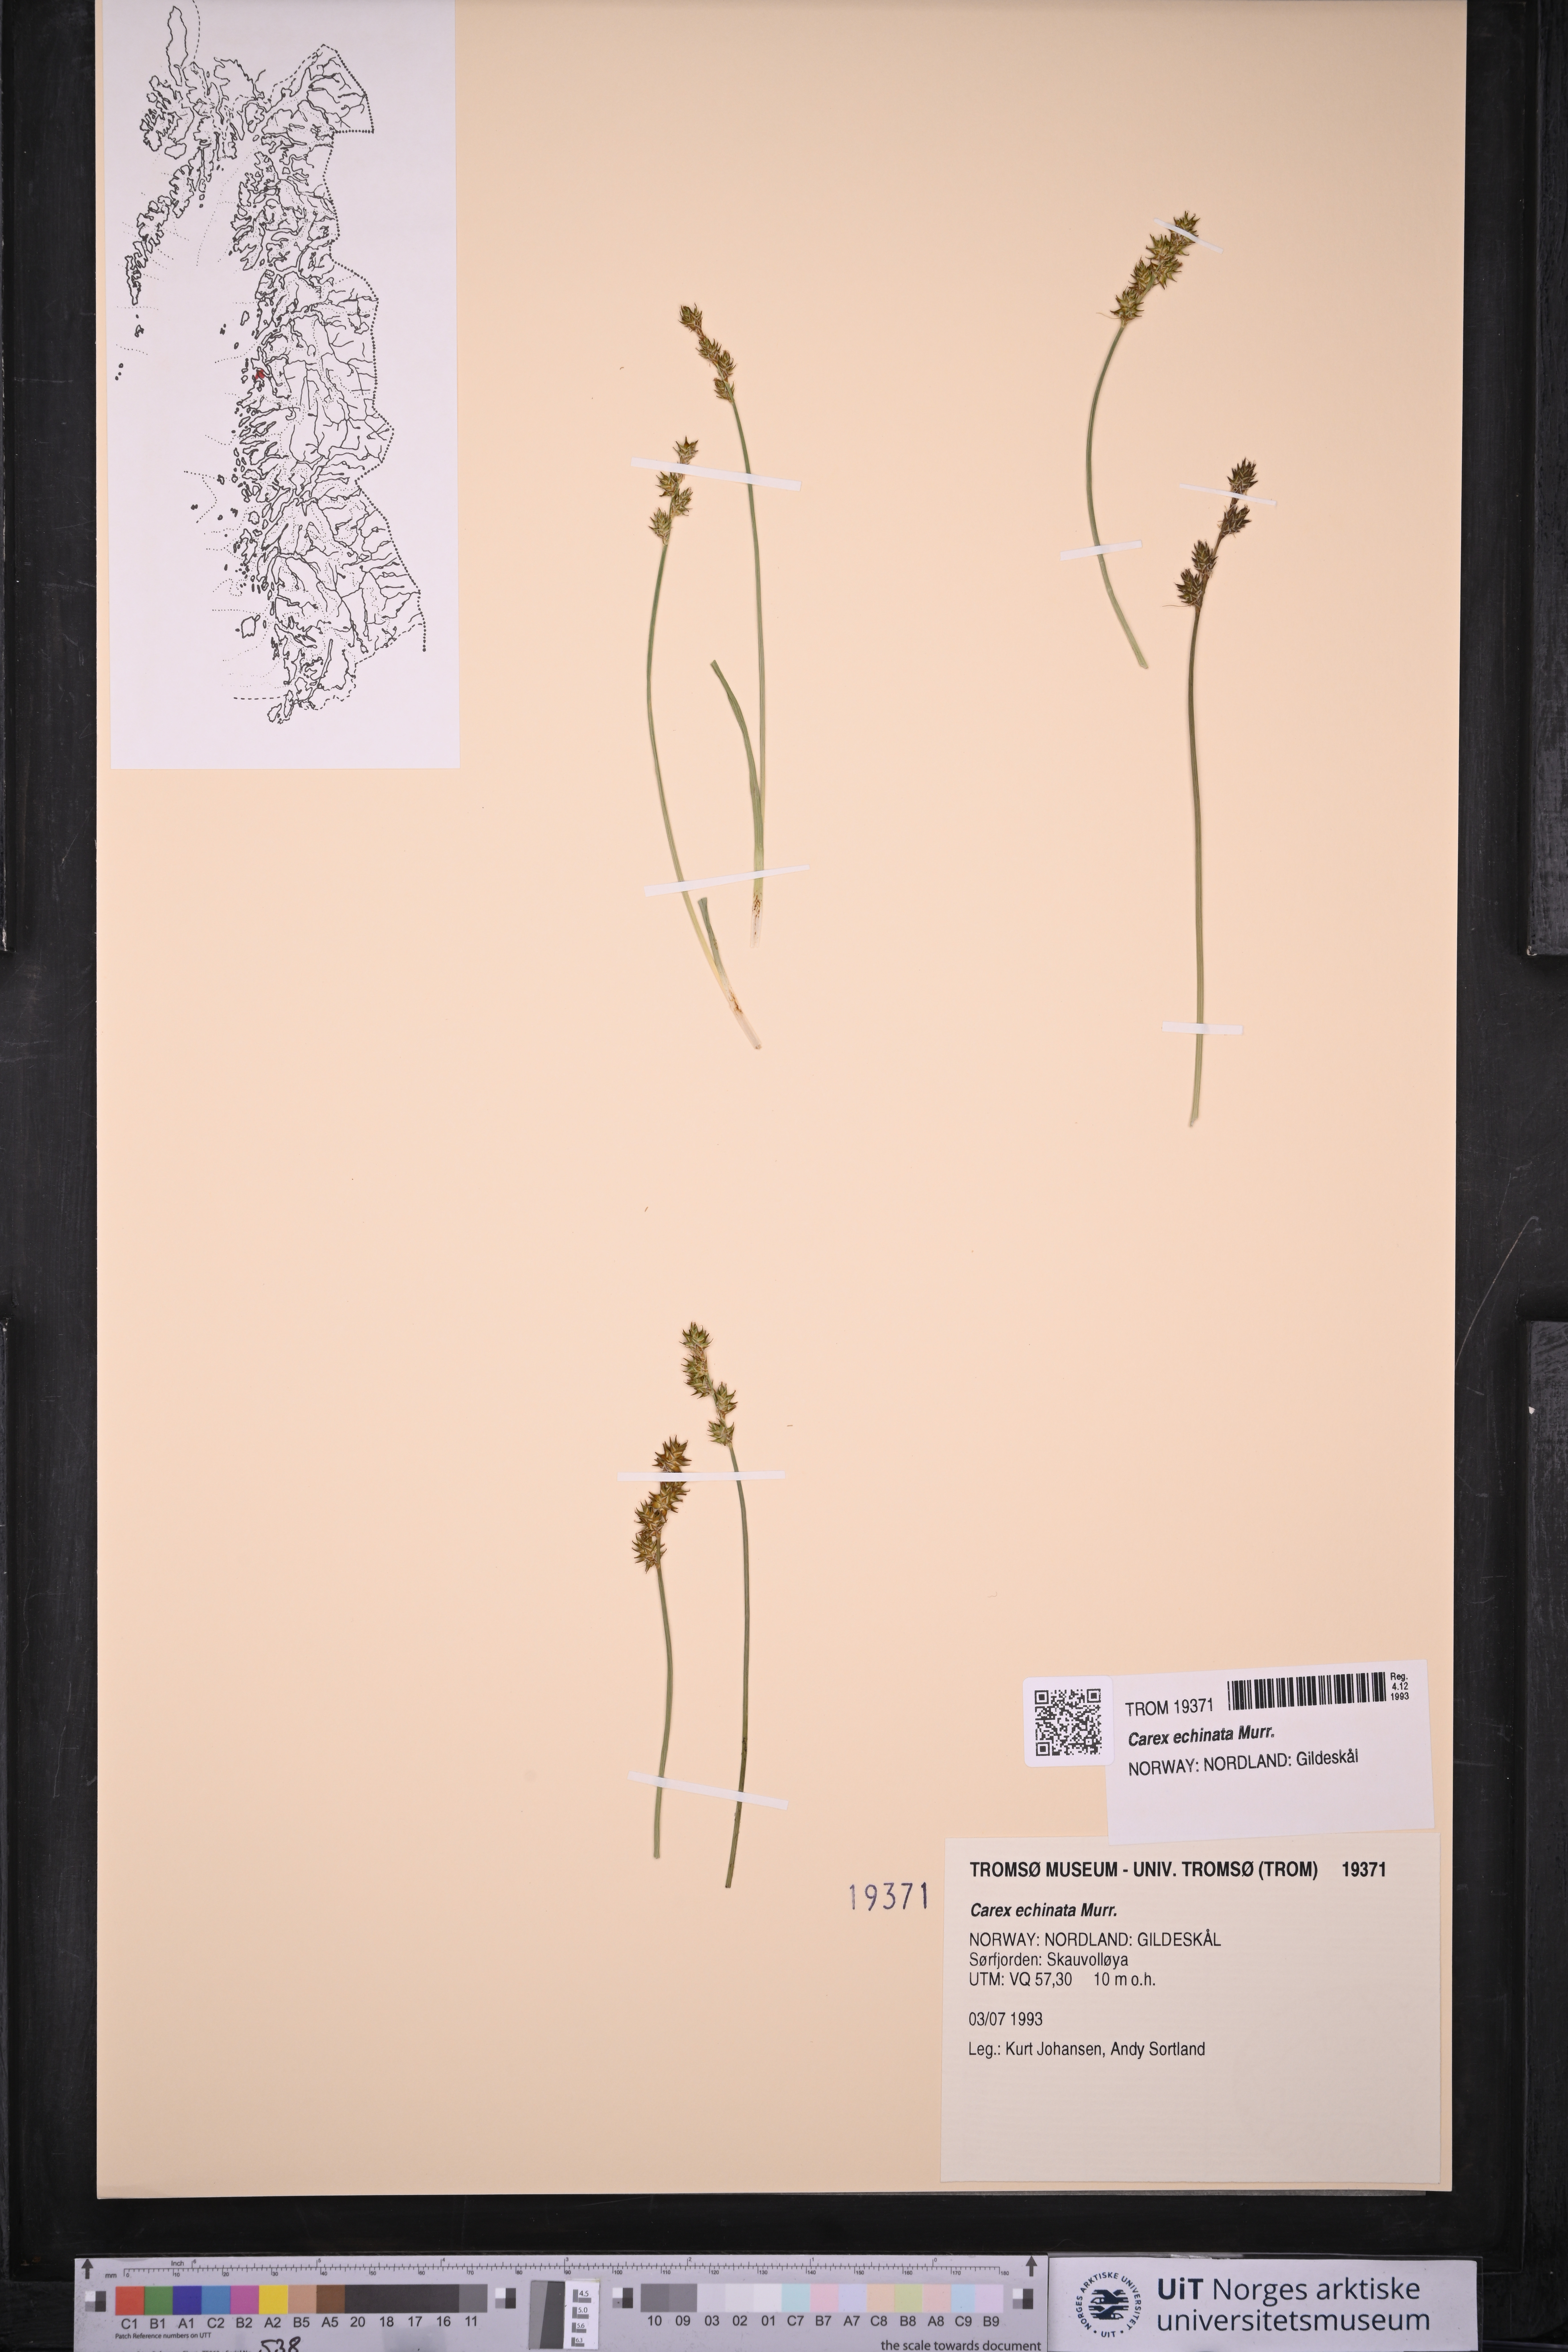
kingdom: Plantae
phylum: Tracheophyta
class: Liliopsida
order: Poales
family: Cyperaceae
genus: Carex
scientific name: Carex echinata
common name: Star sedge
